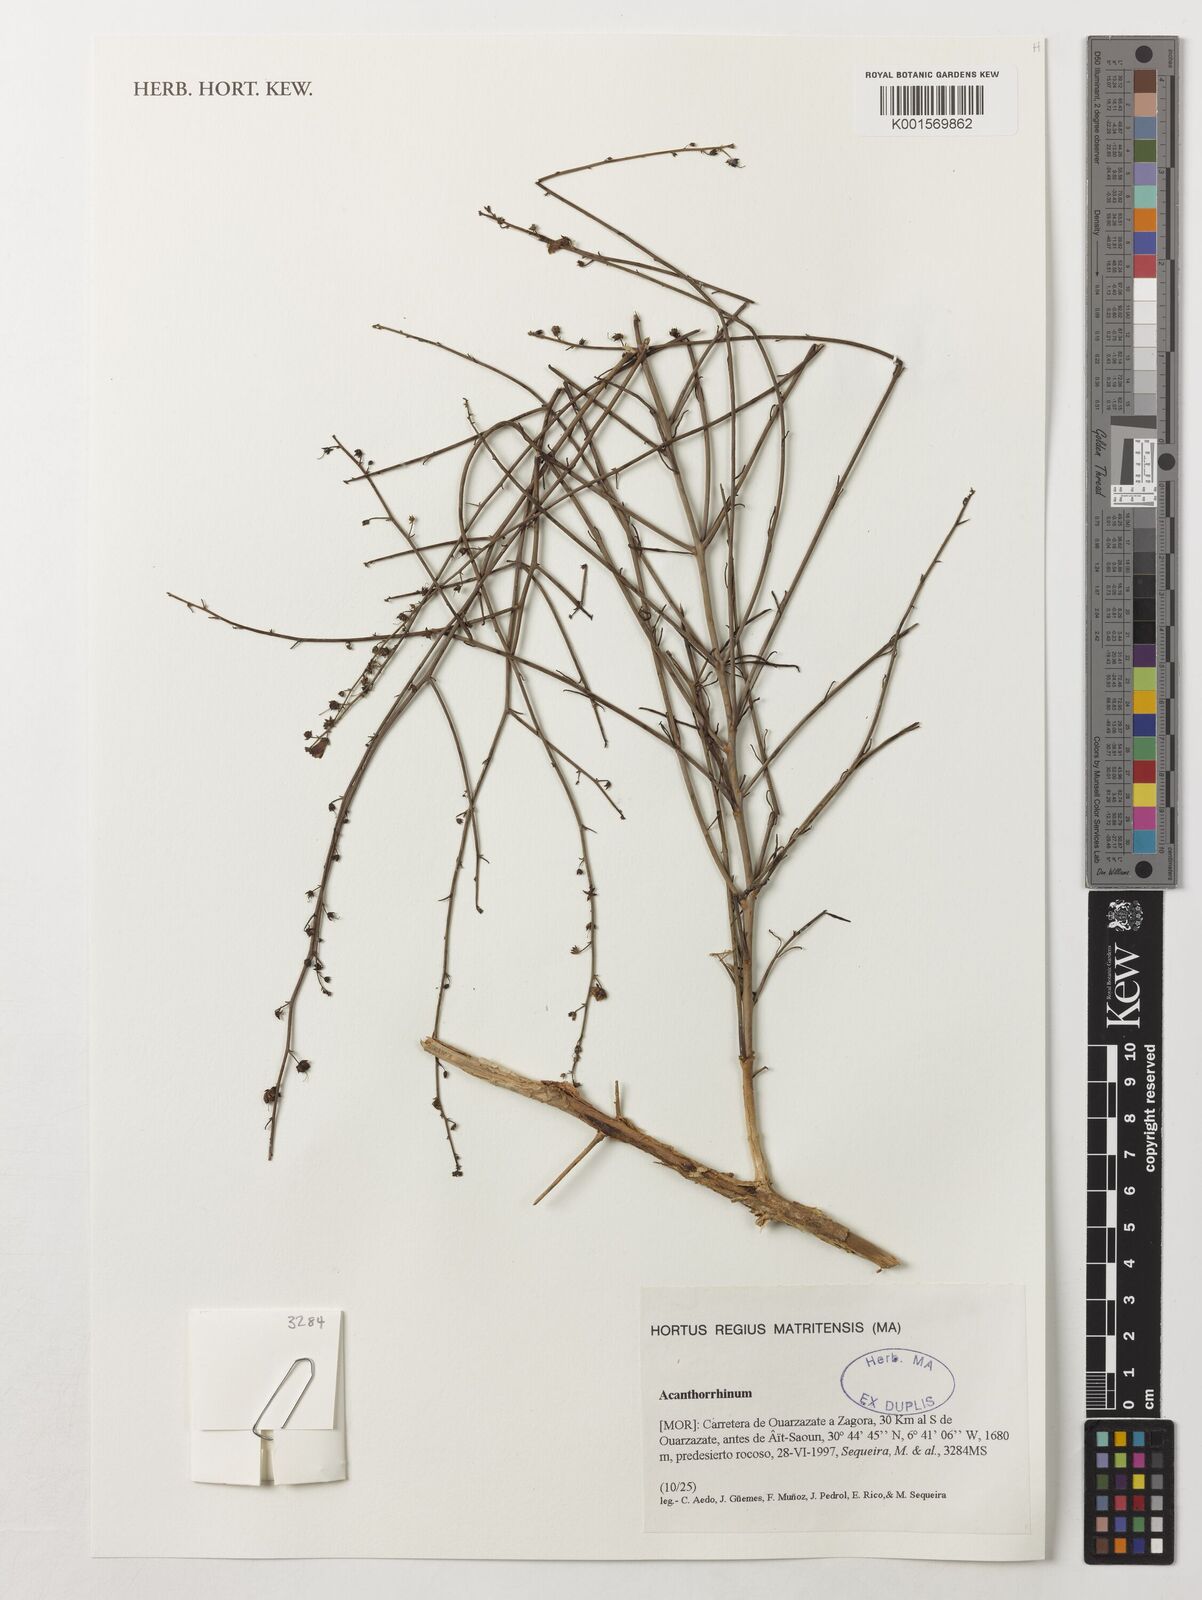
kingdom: Plantae
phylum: Tracheophyta
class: Magnoliopsida
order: Lamiales
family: Plantaginaceae
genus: Acanthorrhinum
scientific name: Acanthorrhinum
